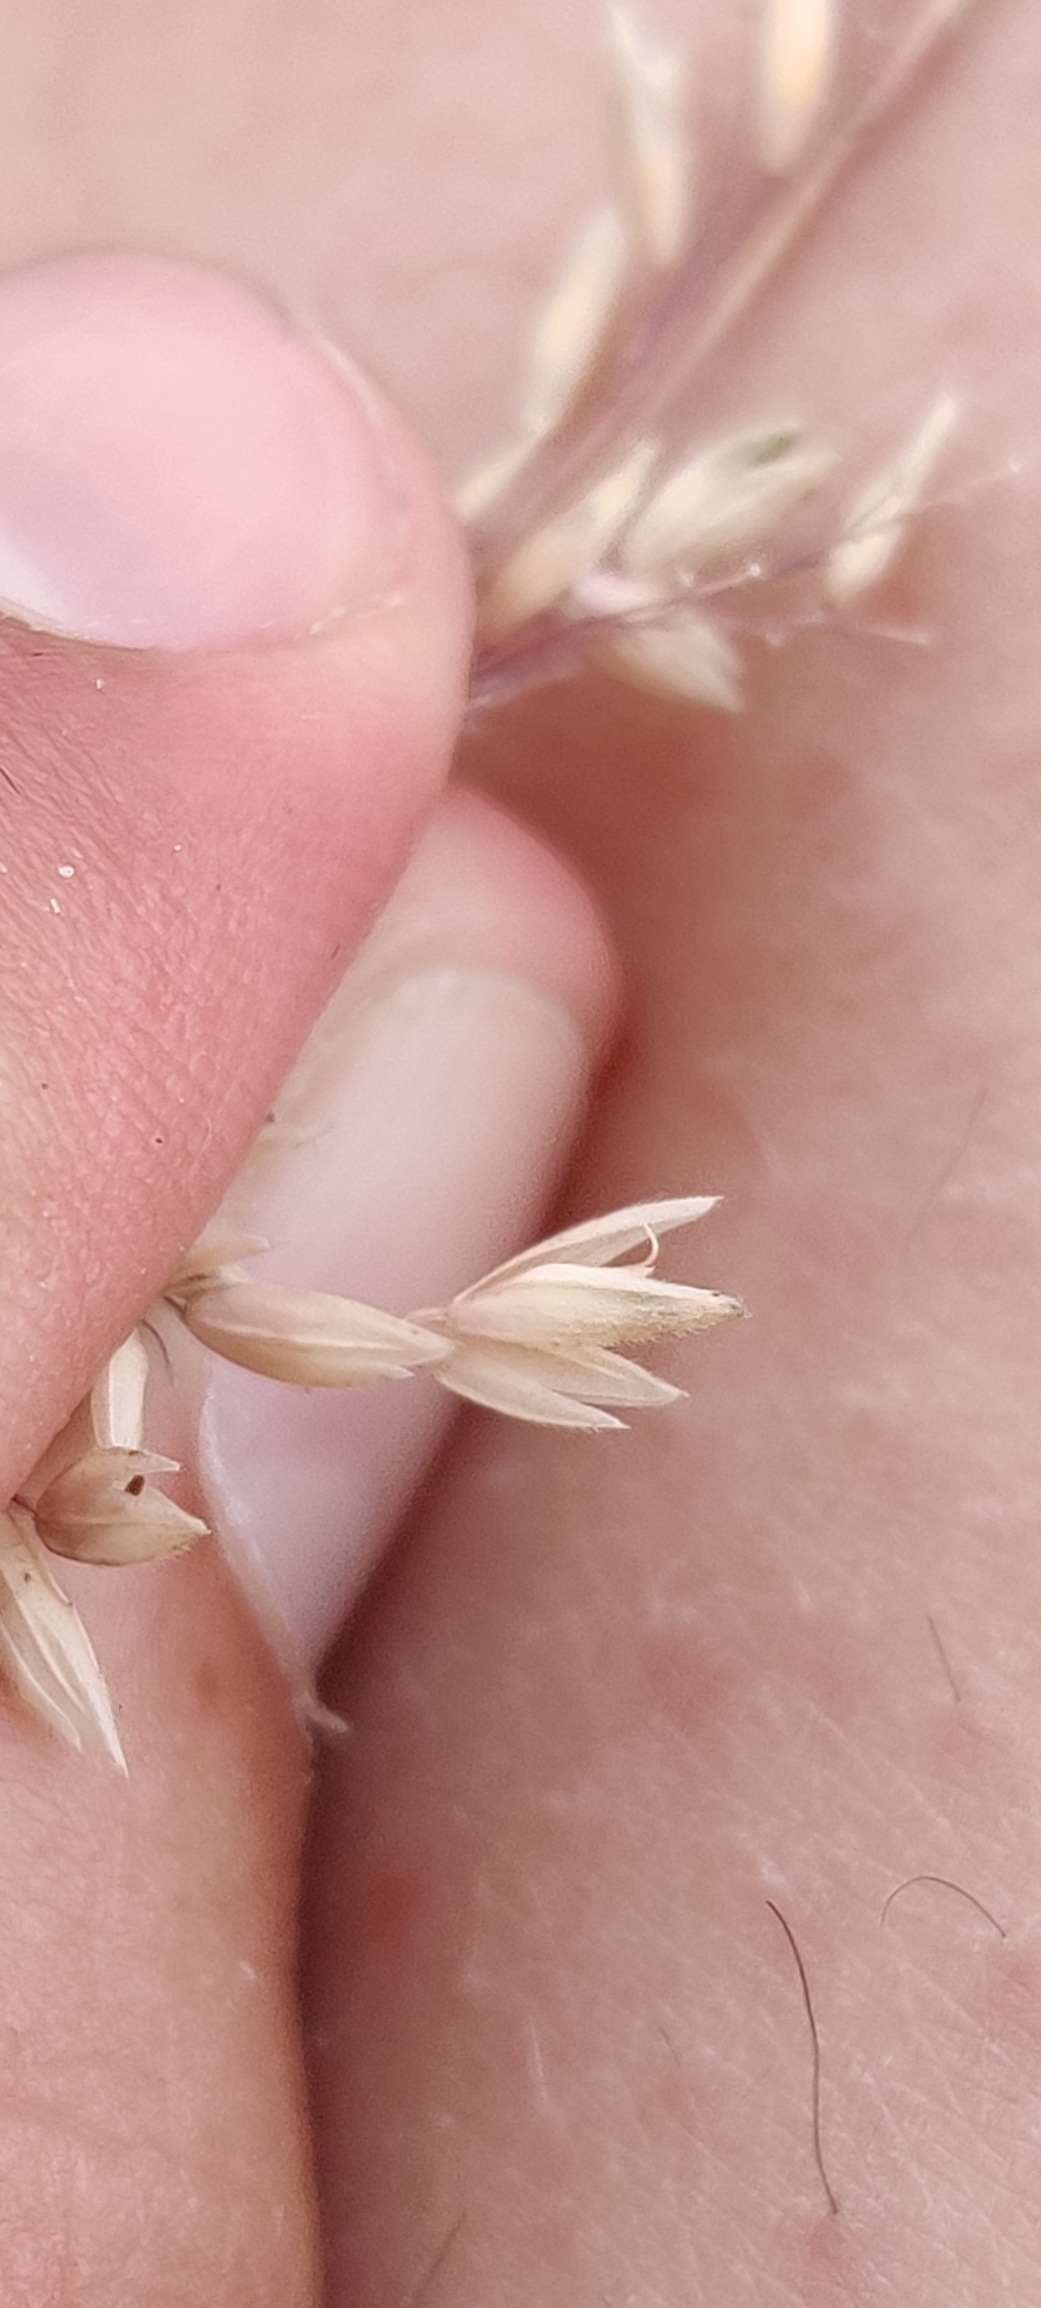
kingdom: Plantae
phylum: Tracheophyta
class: Liliopsida
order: Poales
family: Poaceae
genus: Holcus
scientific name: Holcus lanatus
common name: Fløjlsgræs
